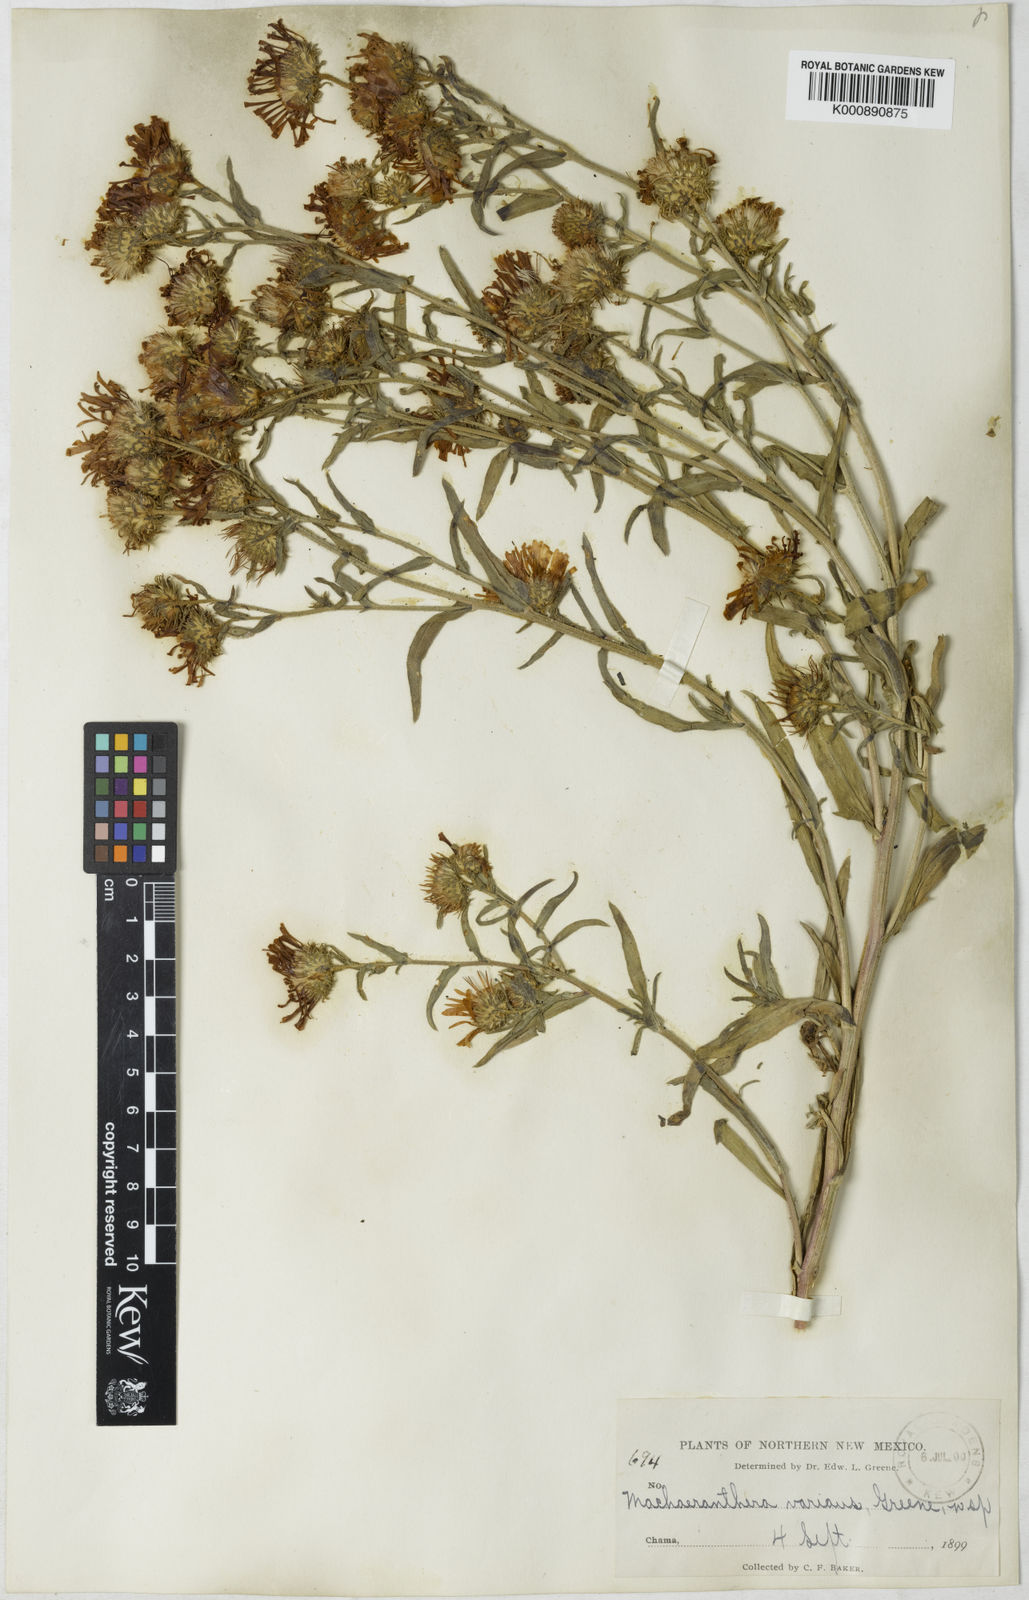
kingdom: Plantae
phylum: Tracheophyta
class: Magnoliopsida
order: Asterales
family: Asteraceae
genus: Aster
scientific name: Aster
